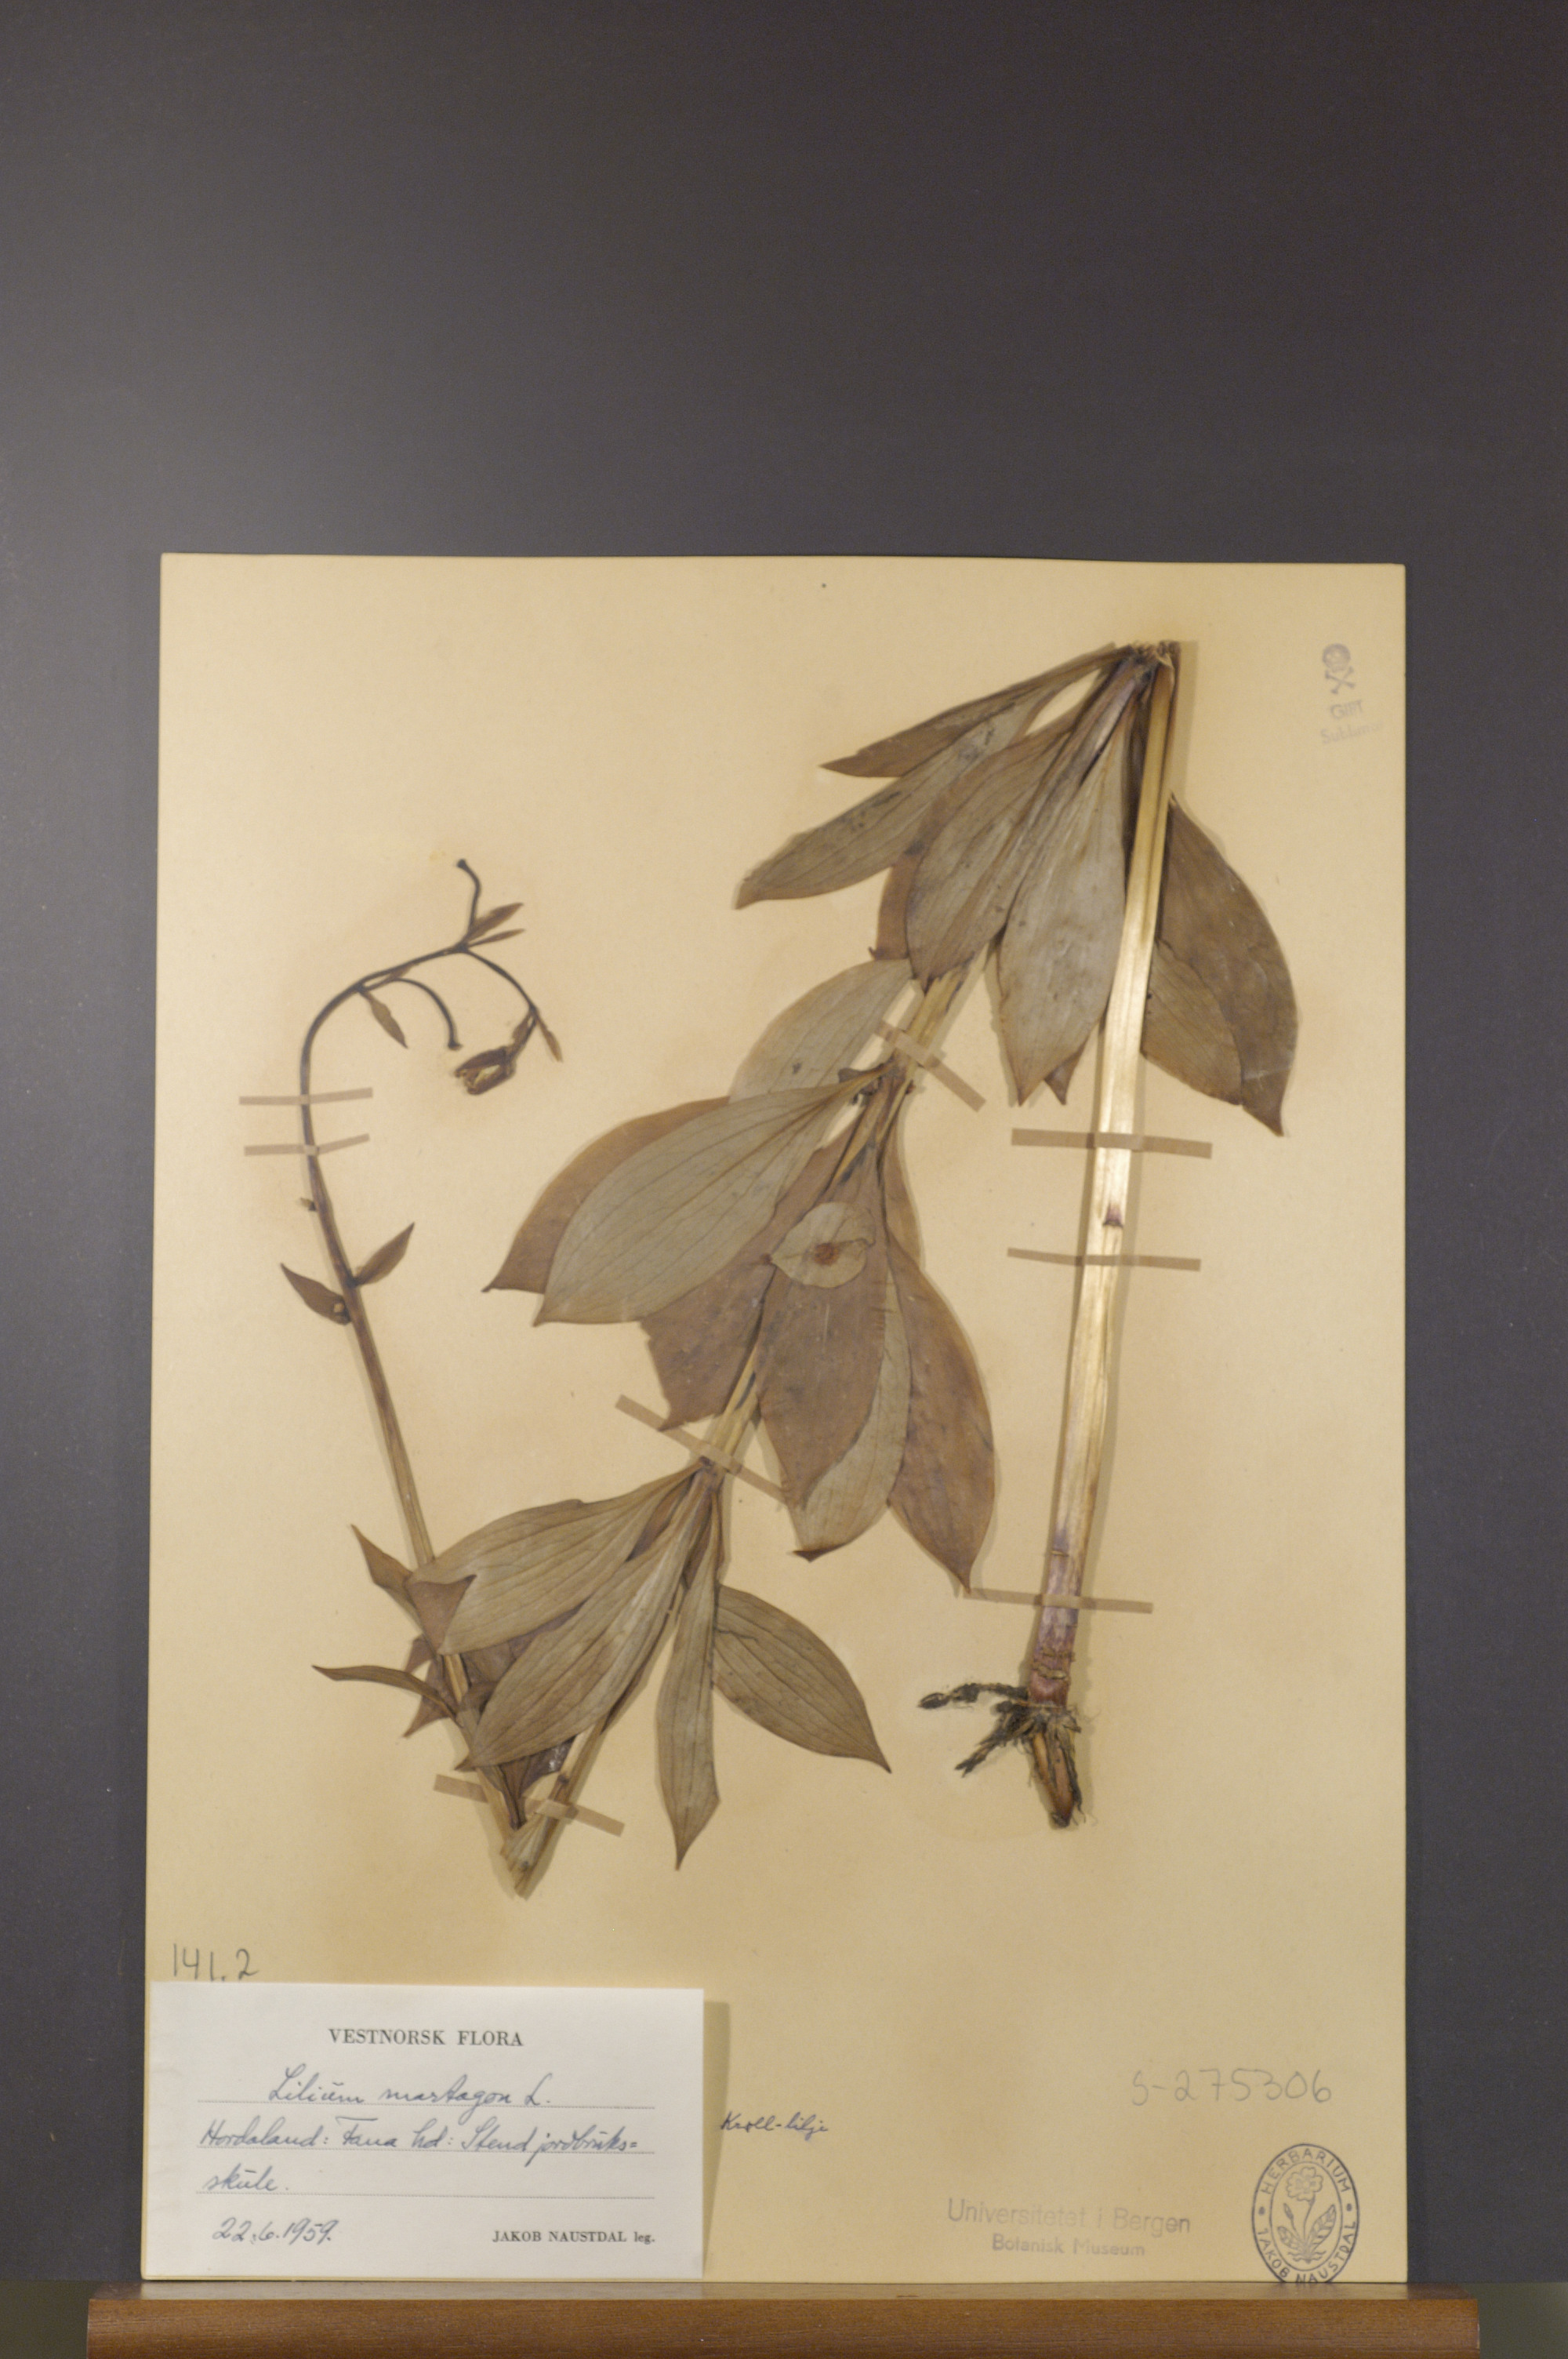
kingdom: Plantae
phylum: Tracheophyta
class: Liliopsida
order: Liliales
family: Liliaceae
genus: Lilium
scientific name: Lilium martagon
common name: Martagon lily
